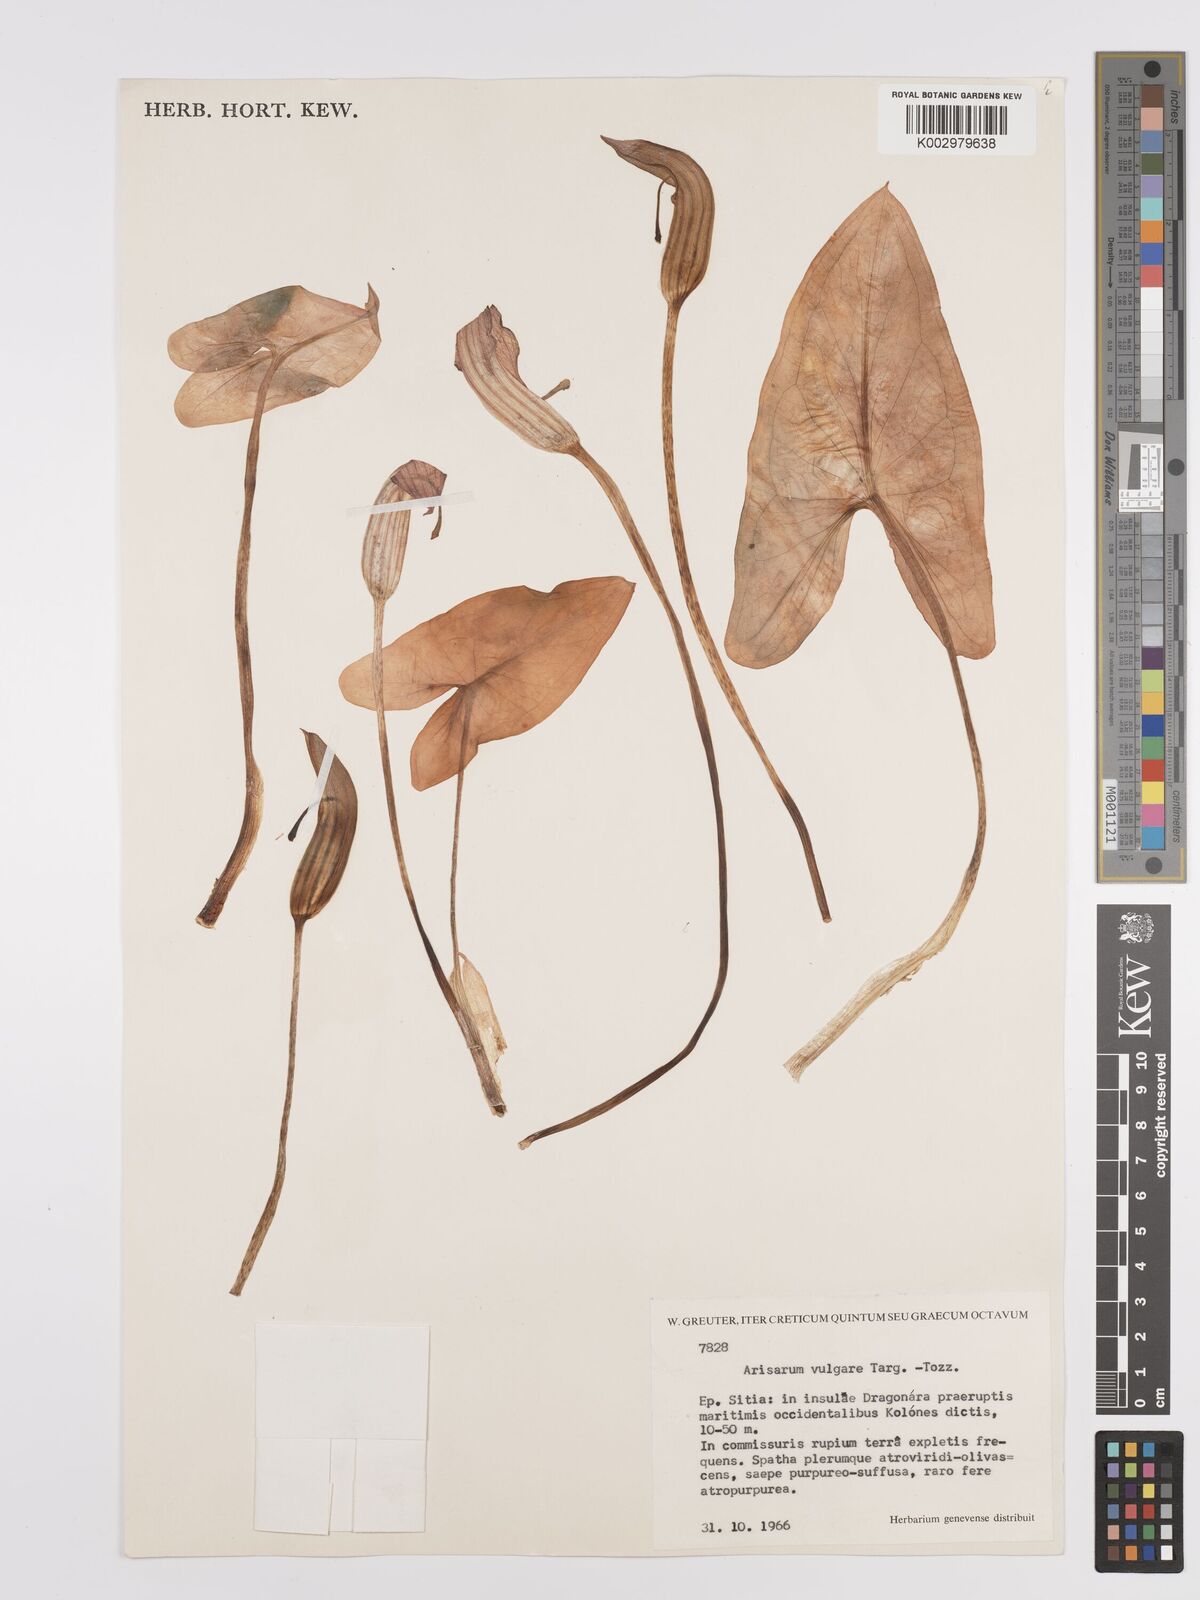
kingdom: Plantae
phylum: Tracheophyta
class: Liliopsida
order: Alismatales
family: Araceae
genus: Arisarum
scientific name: Arisarum vulgare
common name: Common arisarum
